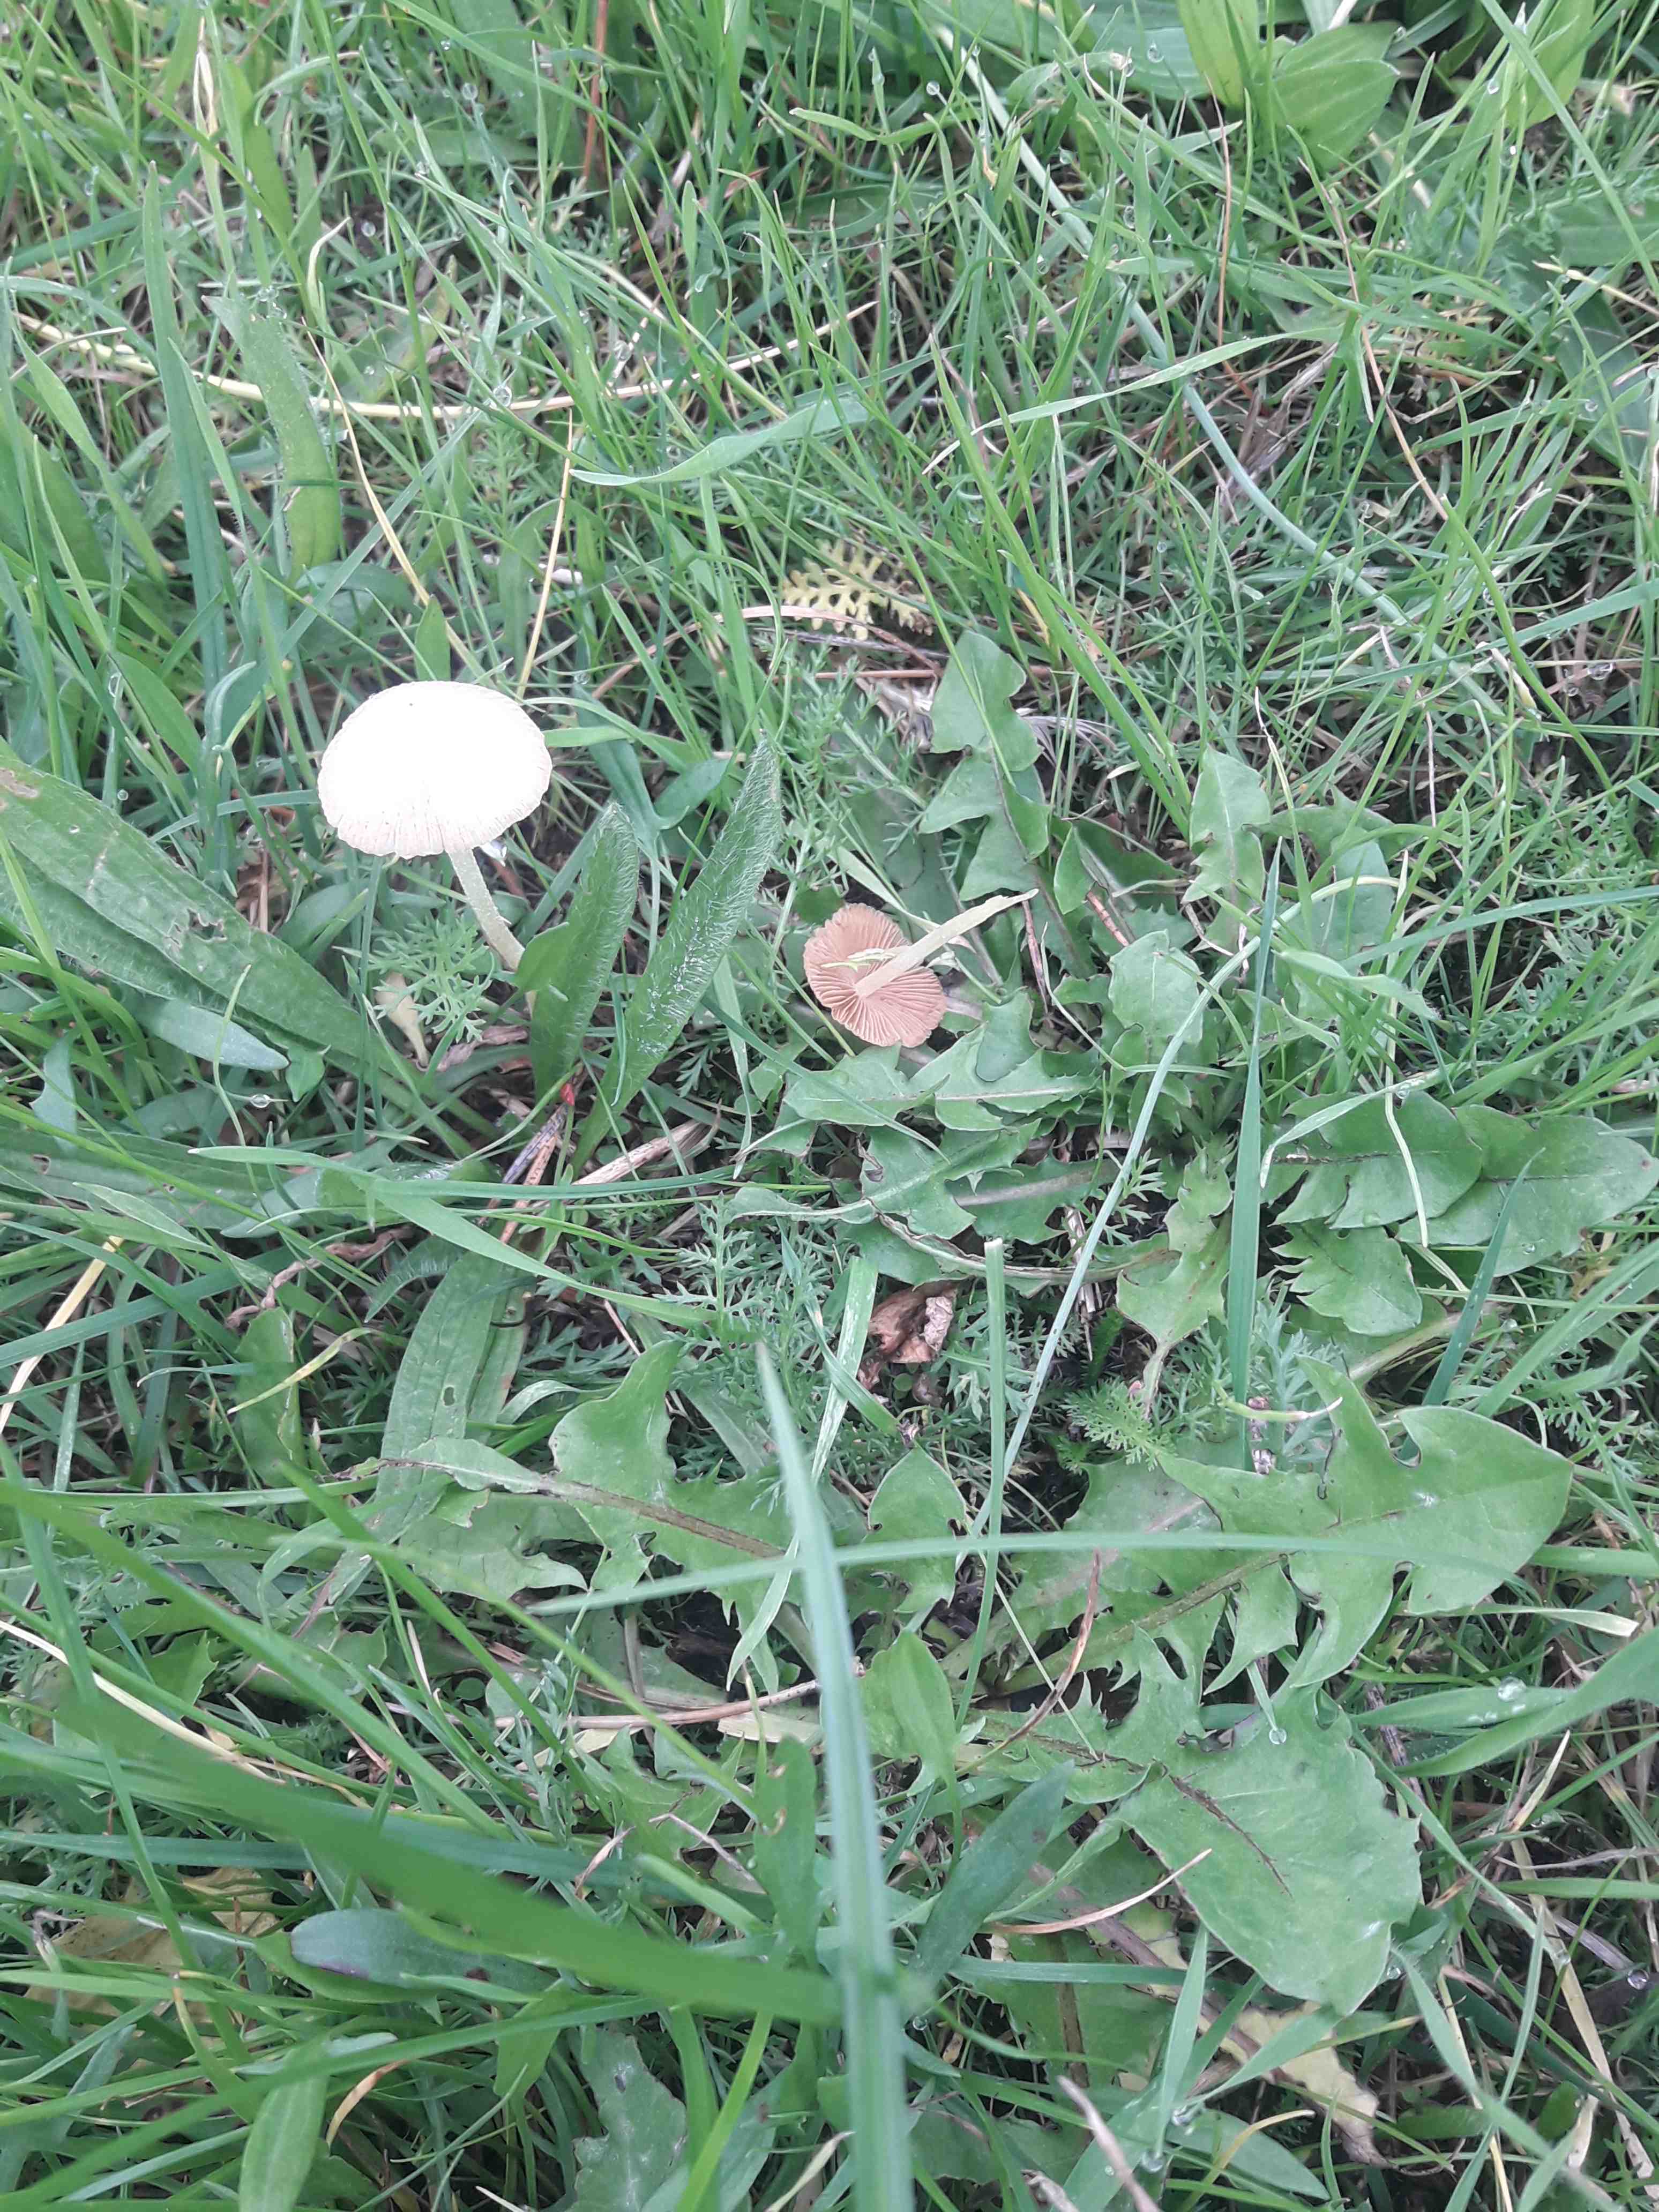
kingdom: Fungi
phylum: Basidiomycota
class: Agaricomycetes
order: Agaricales
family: Bolbitiaceae
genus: Bolbitius
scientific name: Bolbitius titubans
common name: almindelig gulhat
